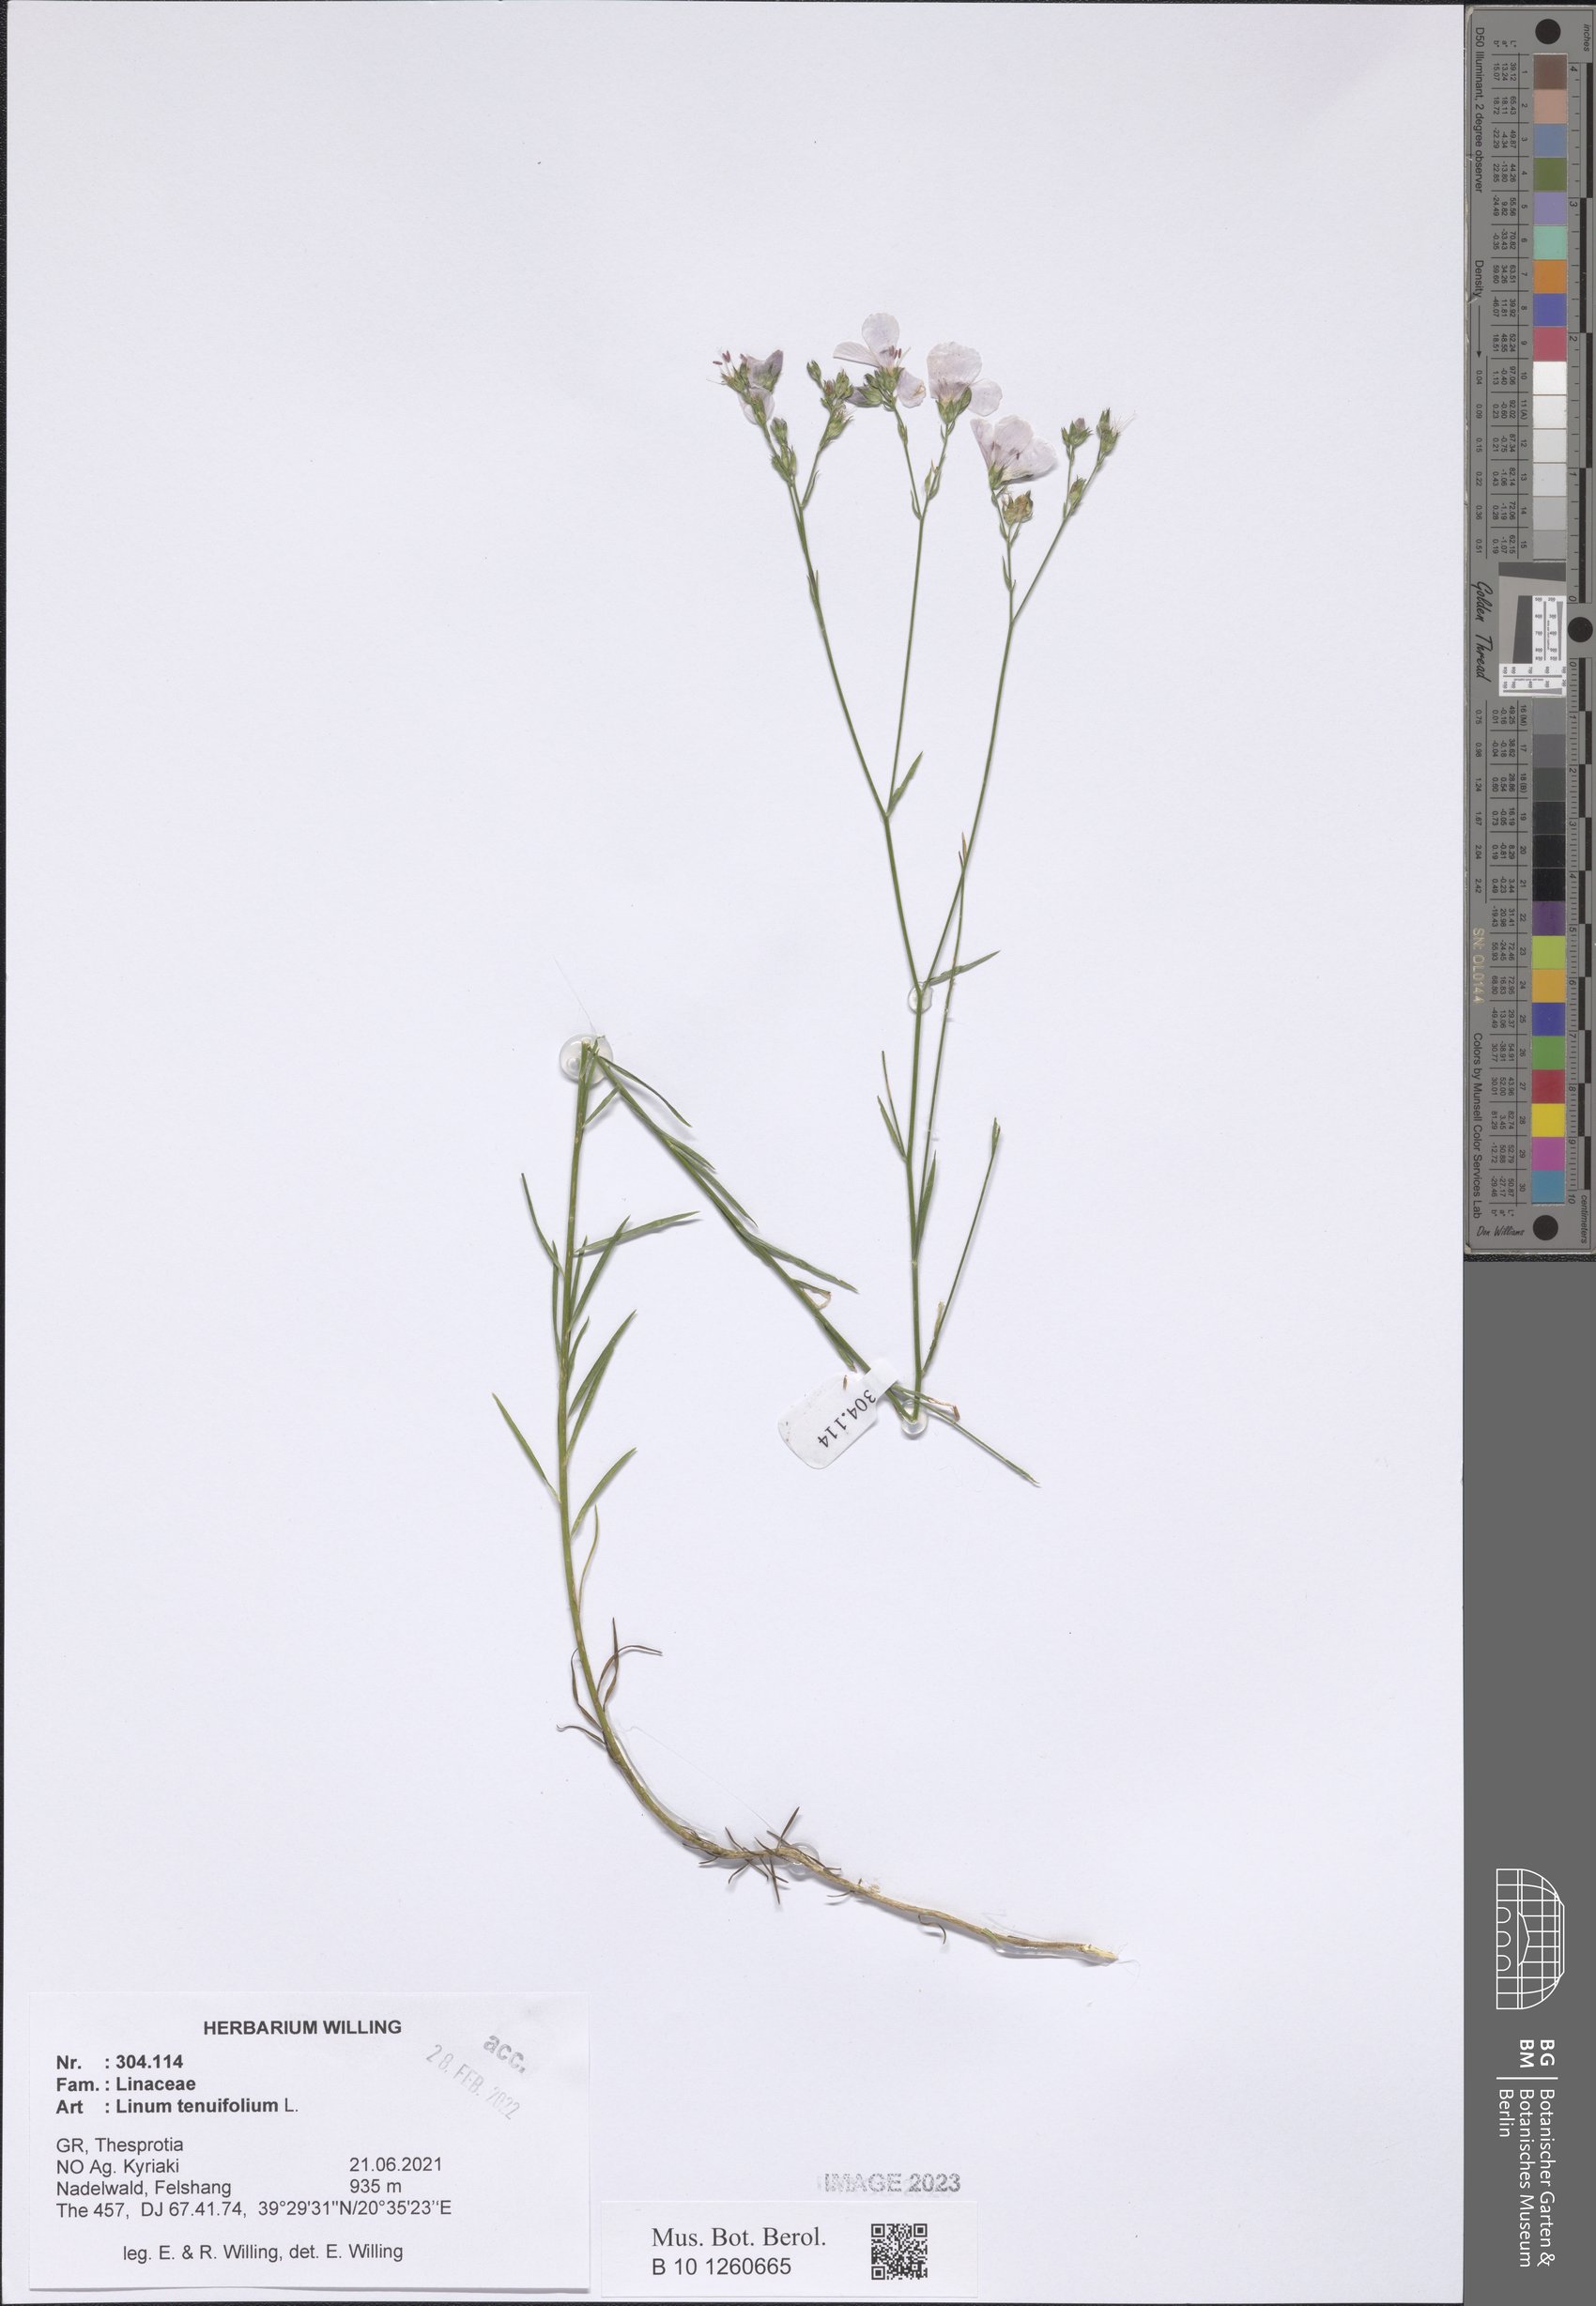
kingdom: Plantae
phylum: Tracheophyta
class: Magnoliopsida
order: Malpighiales
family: Linaceae
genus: Linum
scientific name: Linum tenuifolium
